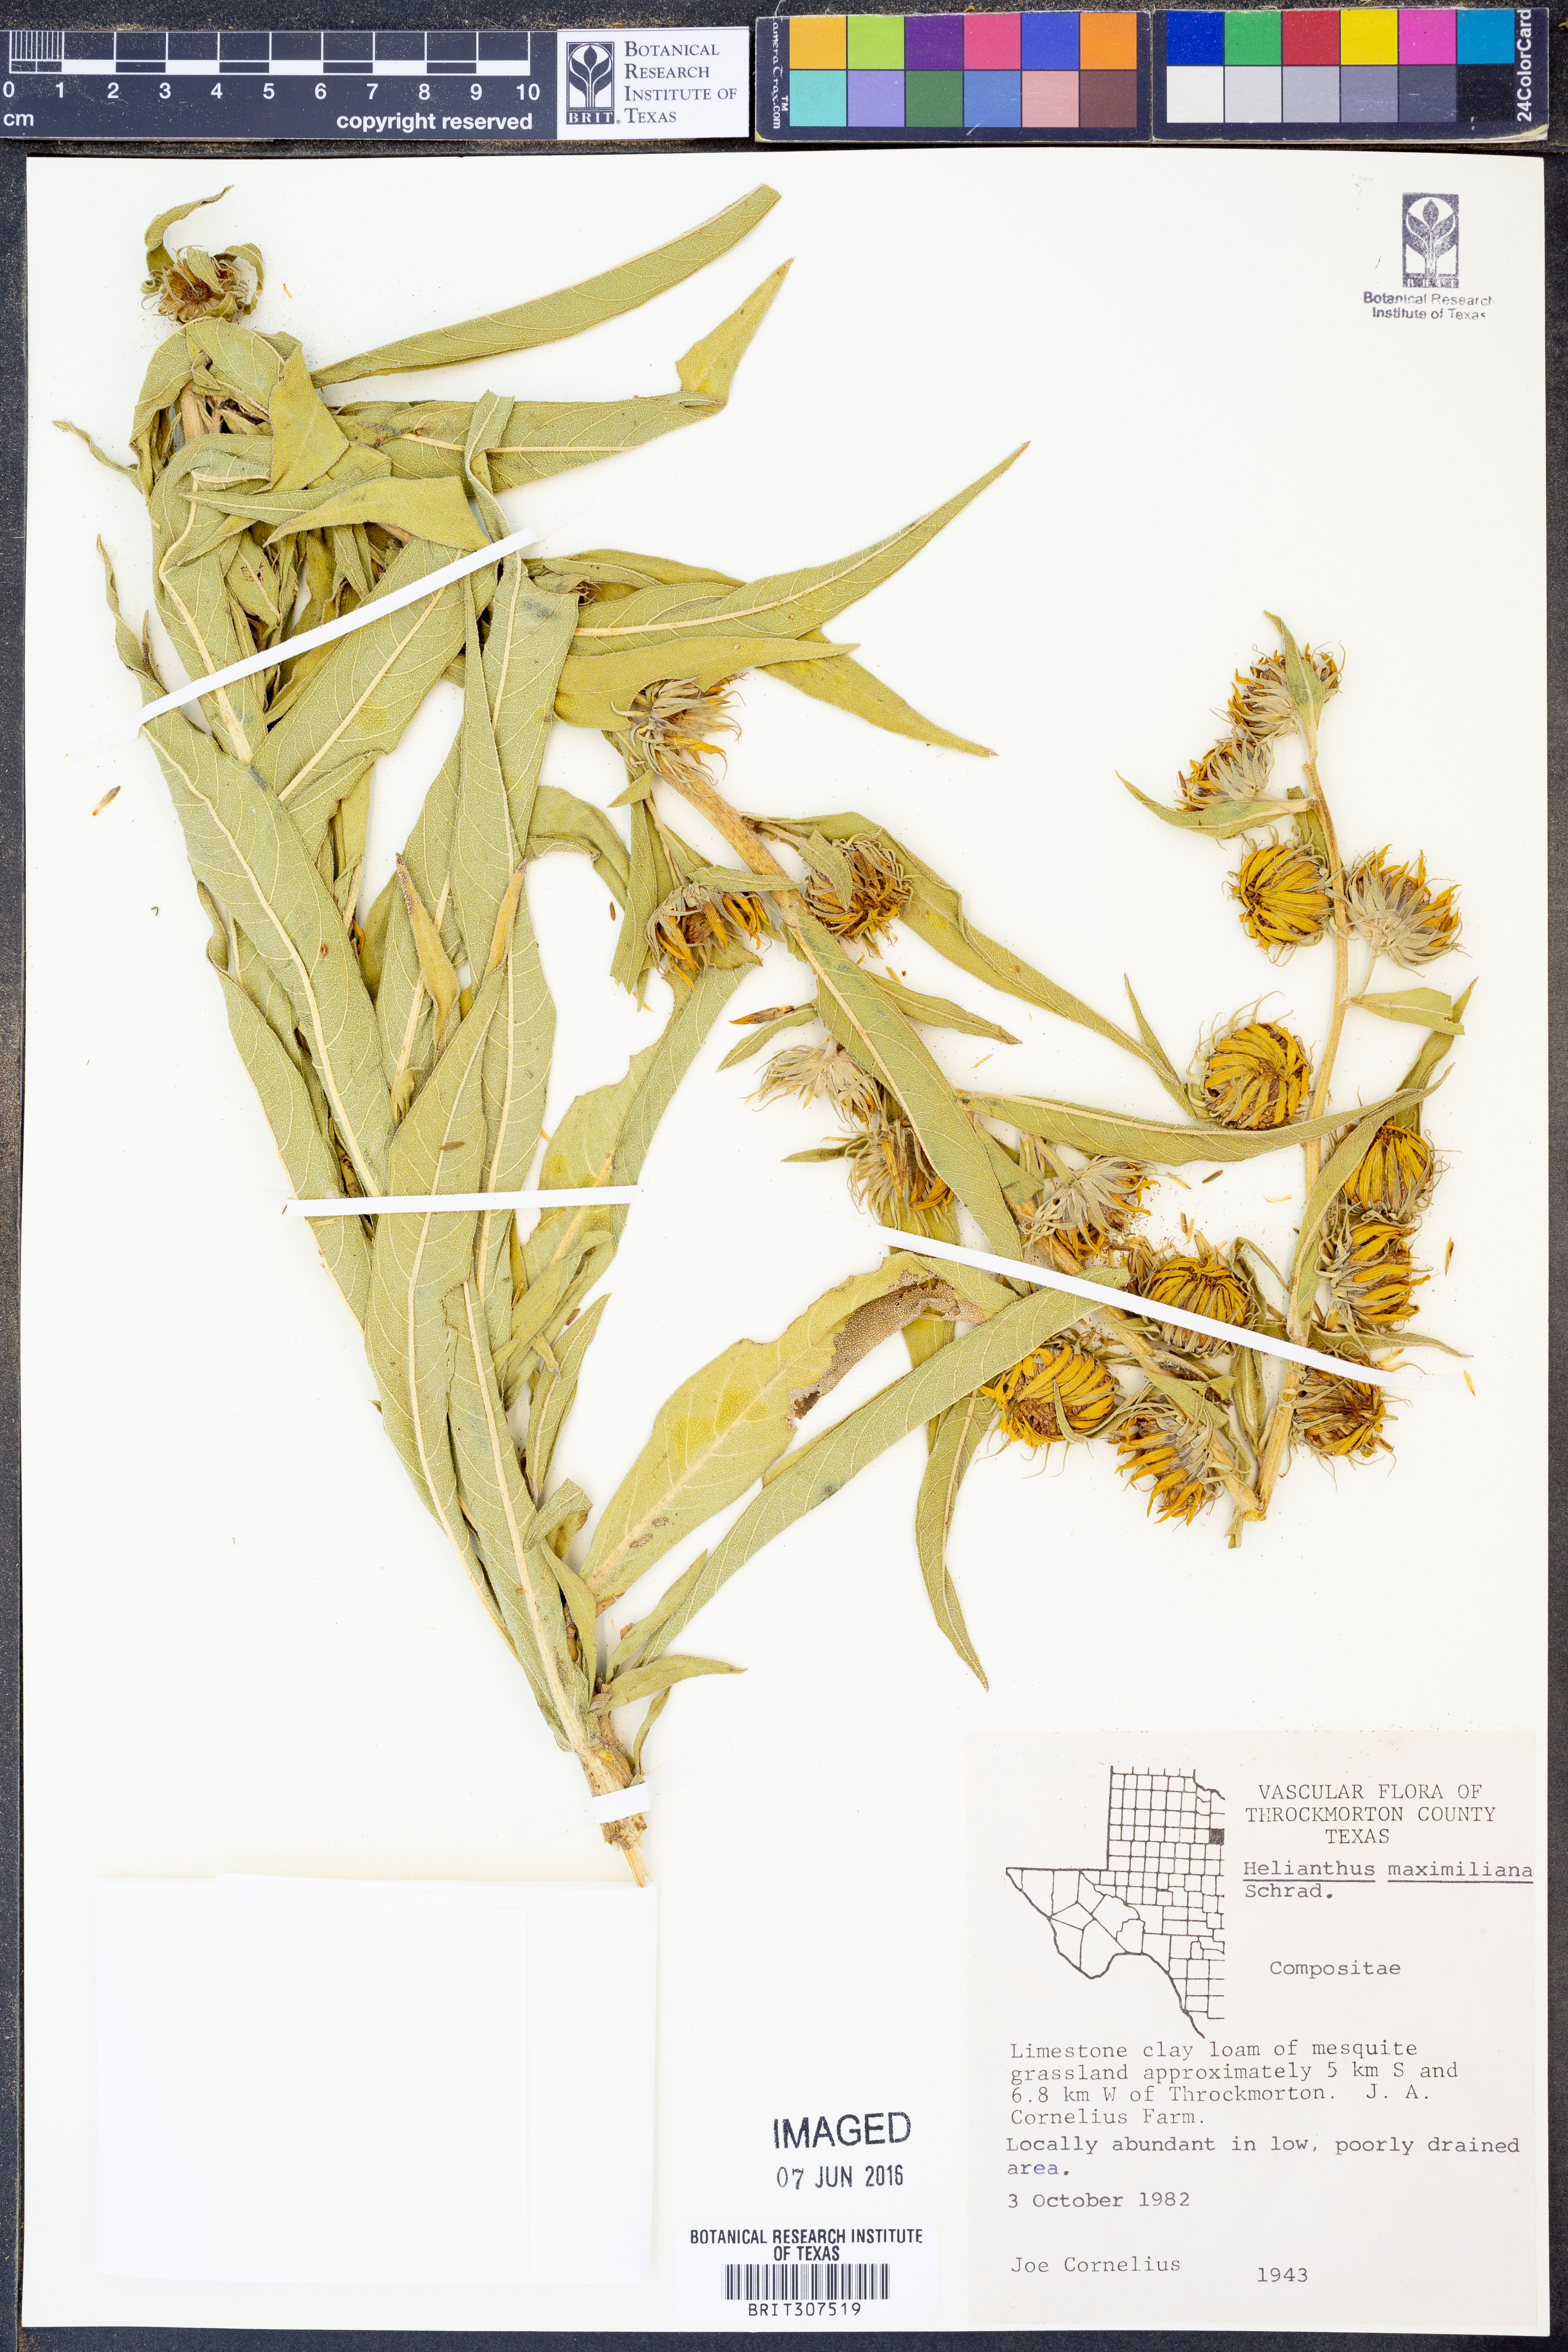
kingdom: Plantae
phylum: Tracheophyta
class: Magnoliopsida
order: Asterales
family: Asteraceae
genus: Helianthus
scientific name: Helianthus maximiliani
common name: Maximilian's sunflower
